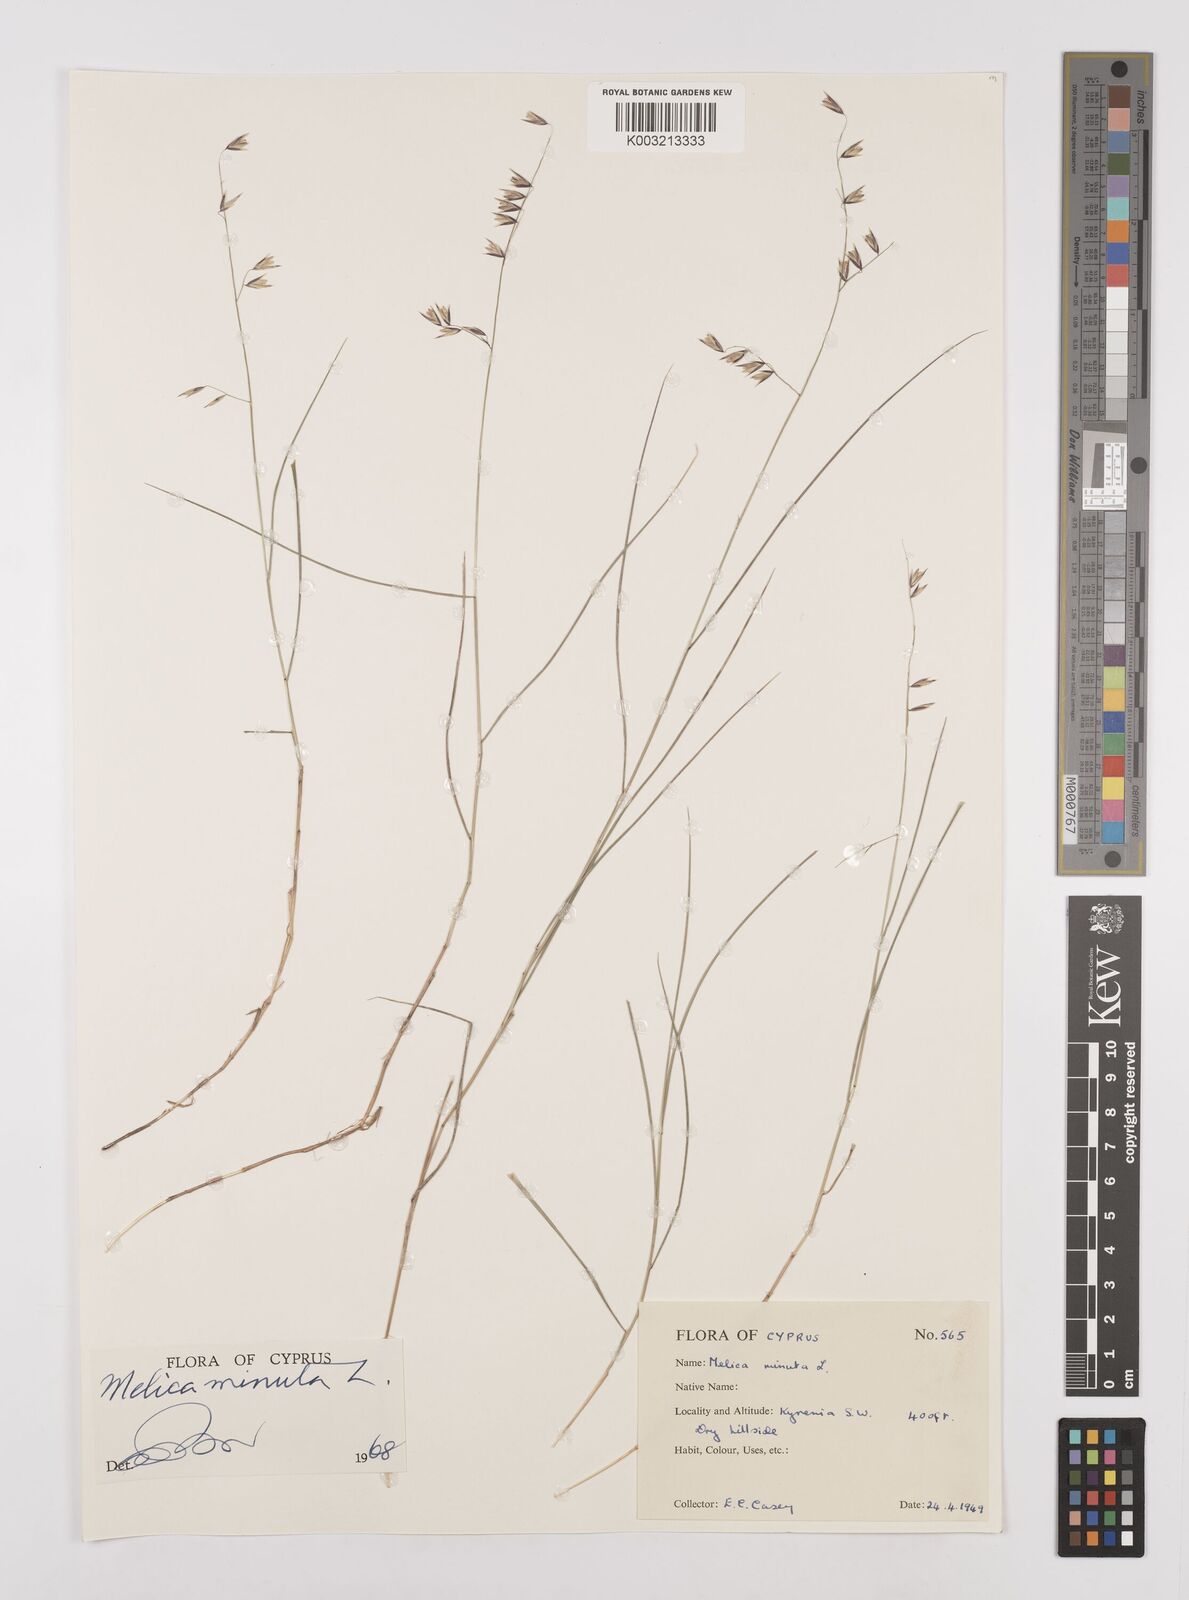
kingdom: Plantae
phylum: Tracheophyta
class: Liliopsida
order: Poales
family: Poaceae
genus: Melica
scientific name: Melica minuta
